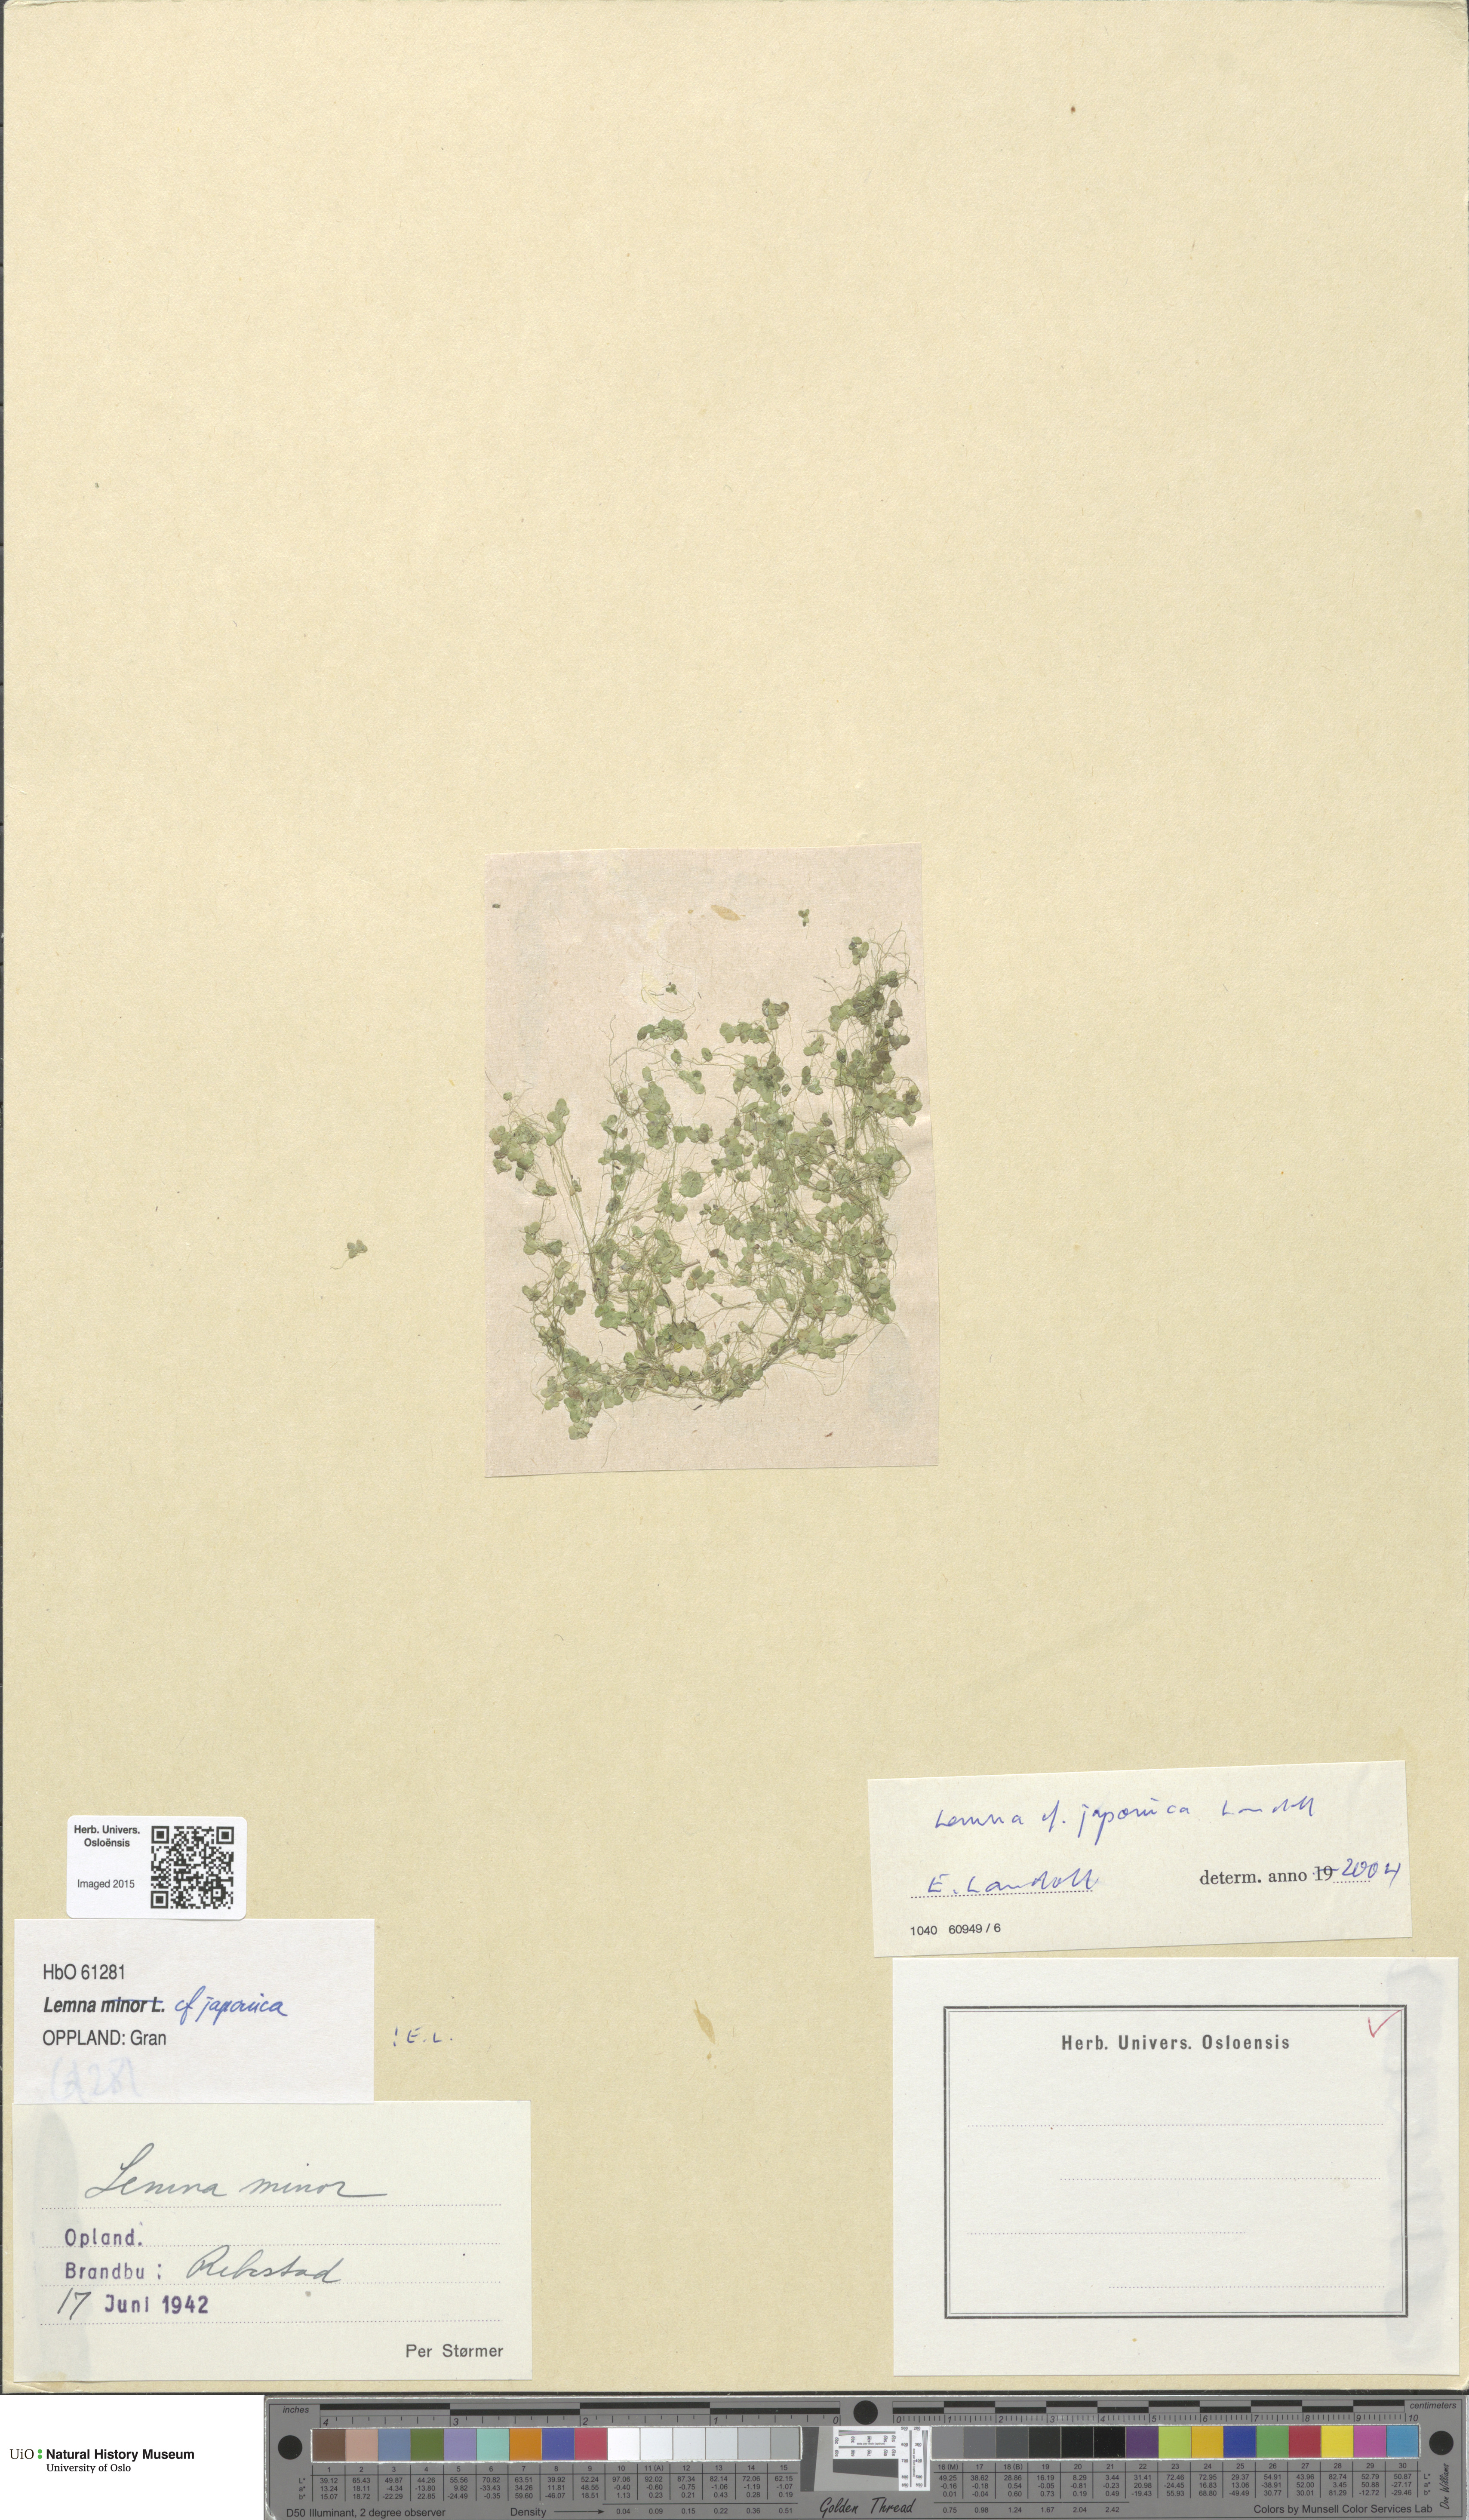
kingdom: Plantae
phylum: Tracheophyta
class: Liliopsida
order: Alismatales
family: Araceae
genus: Lemna
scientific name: Lemna japonica
